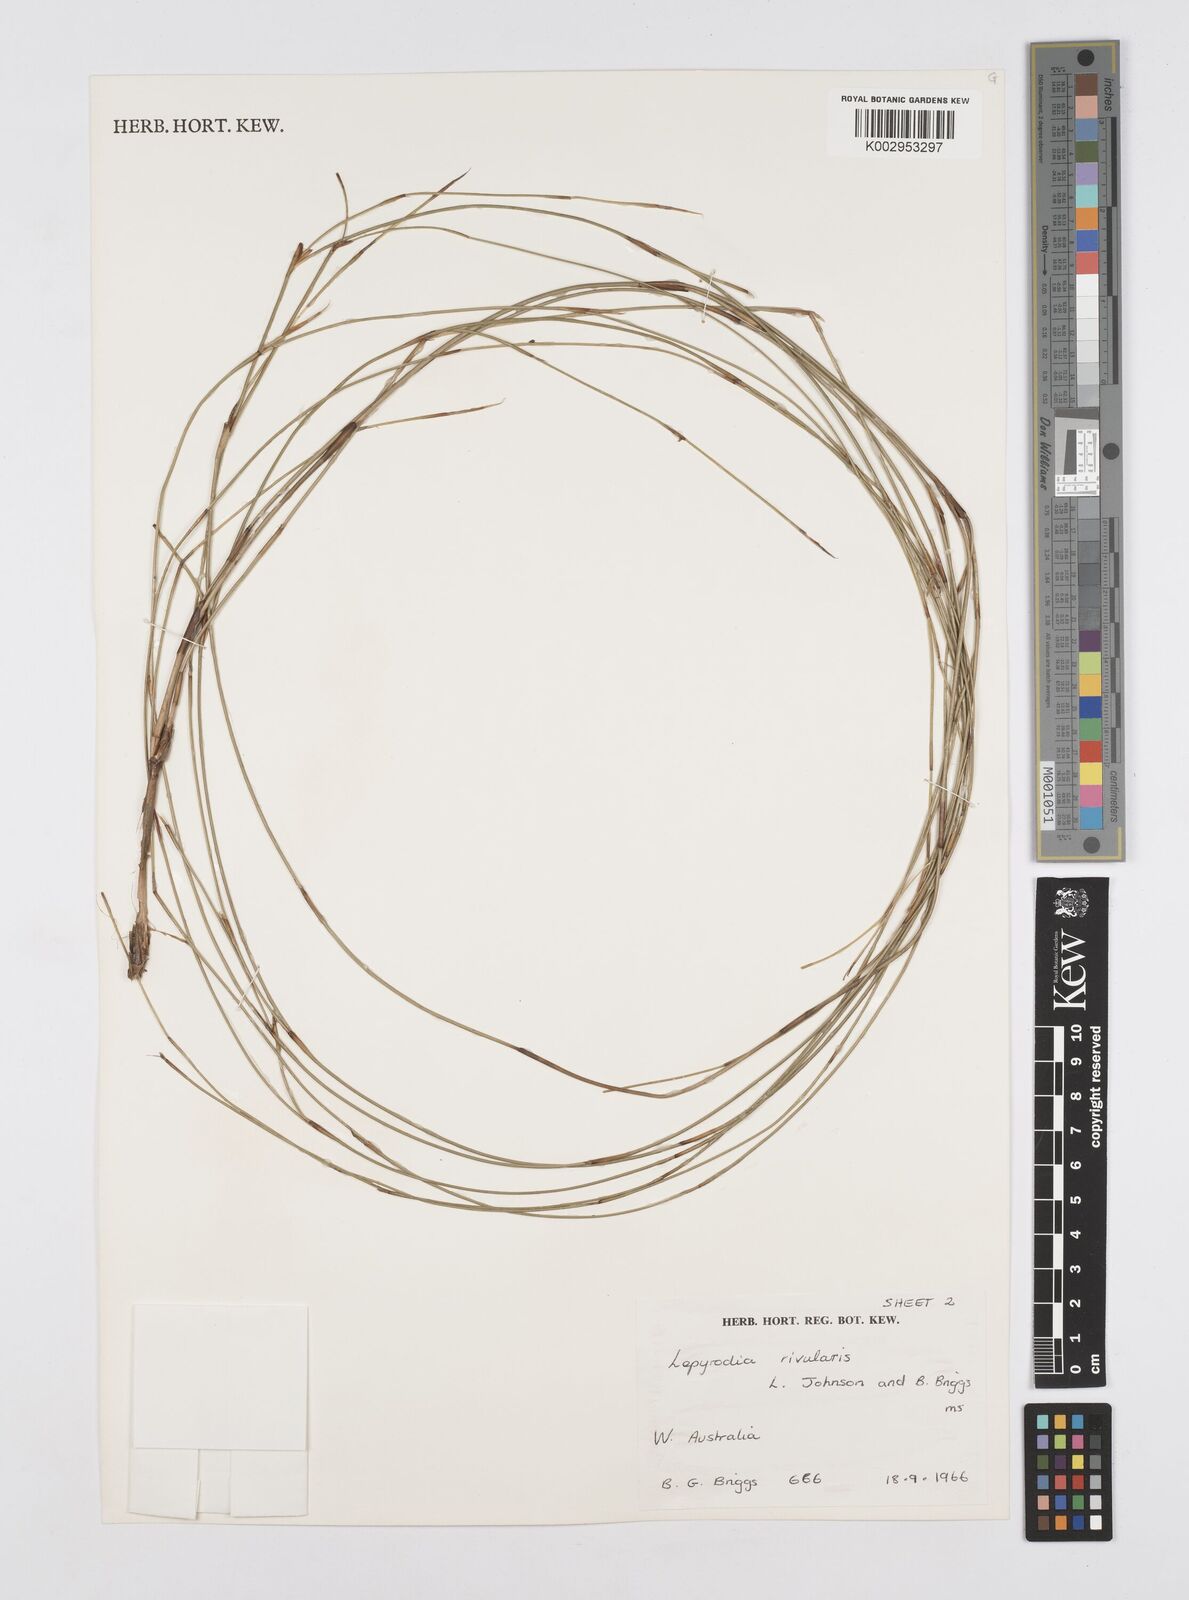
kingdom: Plantae
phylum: Tracheophyta
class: Liliopsida
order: Poales
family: Restionaceae
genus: Sporadanthus
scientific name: Sporadanthus rivularis
